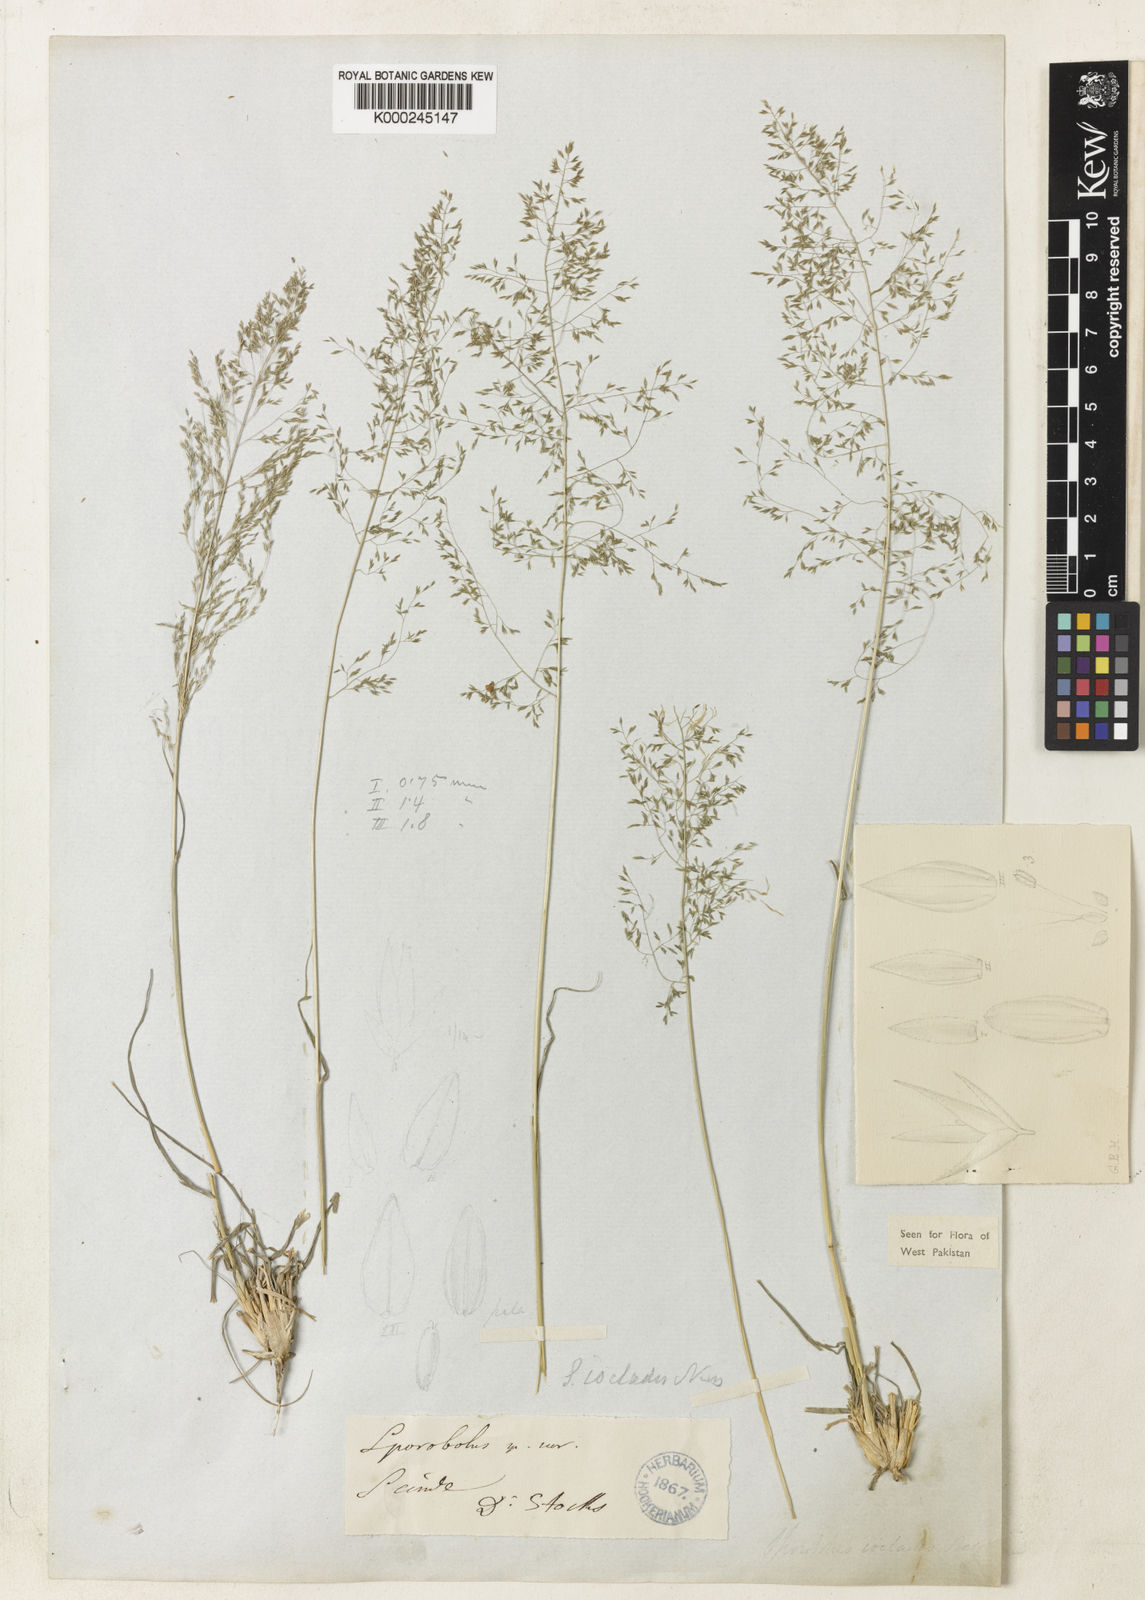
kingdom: Plantae
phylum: Tracheophyta
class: Liliopsida
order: Poales
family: Poaceae
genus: Sporobolus
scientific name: Sporobolus nervosus
